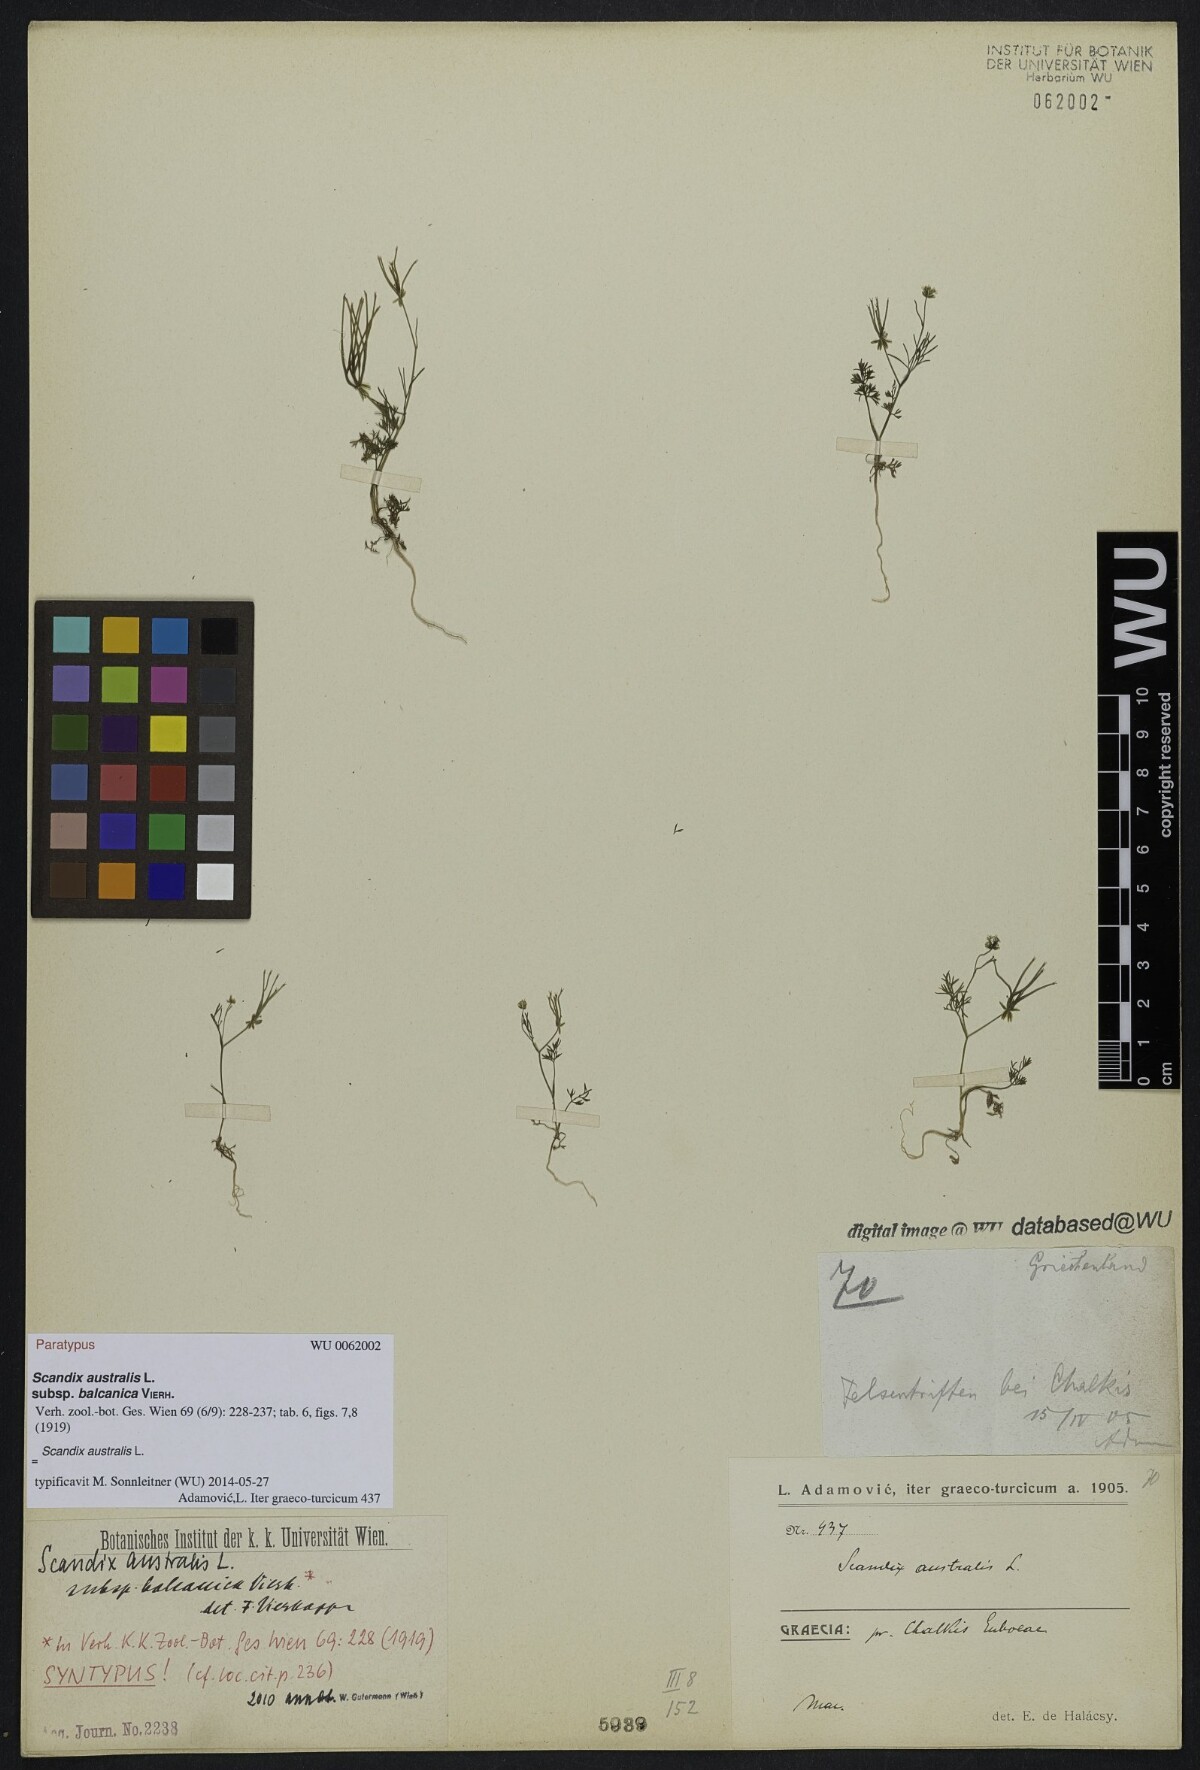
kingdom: Plantae
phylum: Tracheophyta
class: Magnoliopsida
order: Apiales
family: Apiaceae
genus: Scandix
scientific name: Scandix australis
